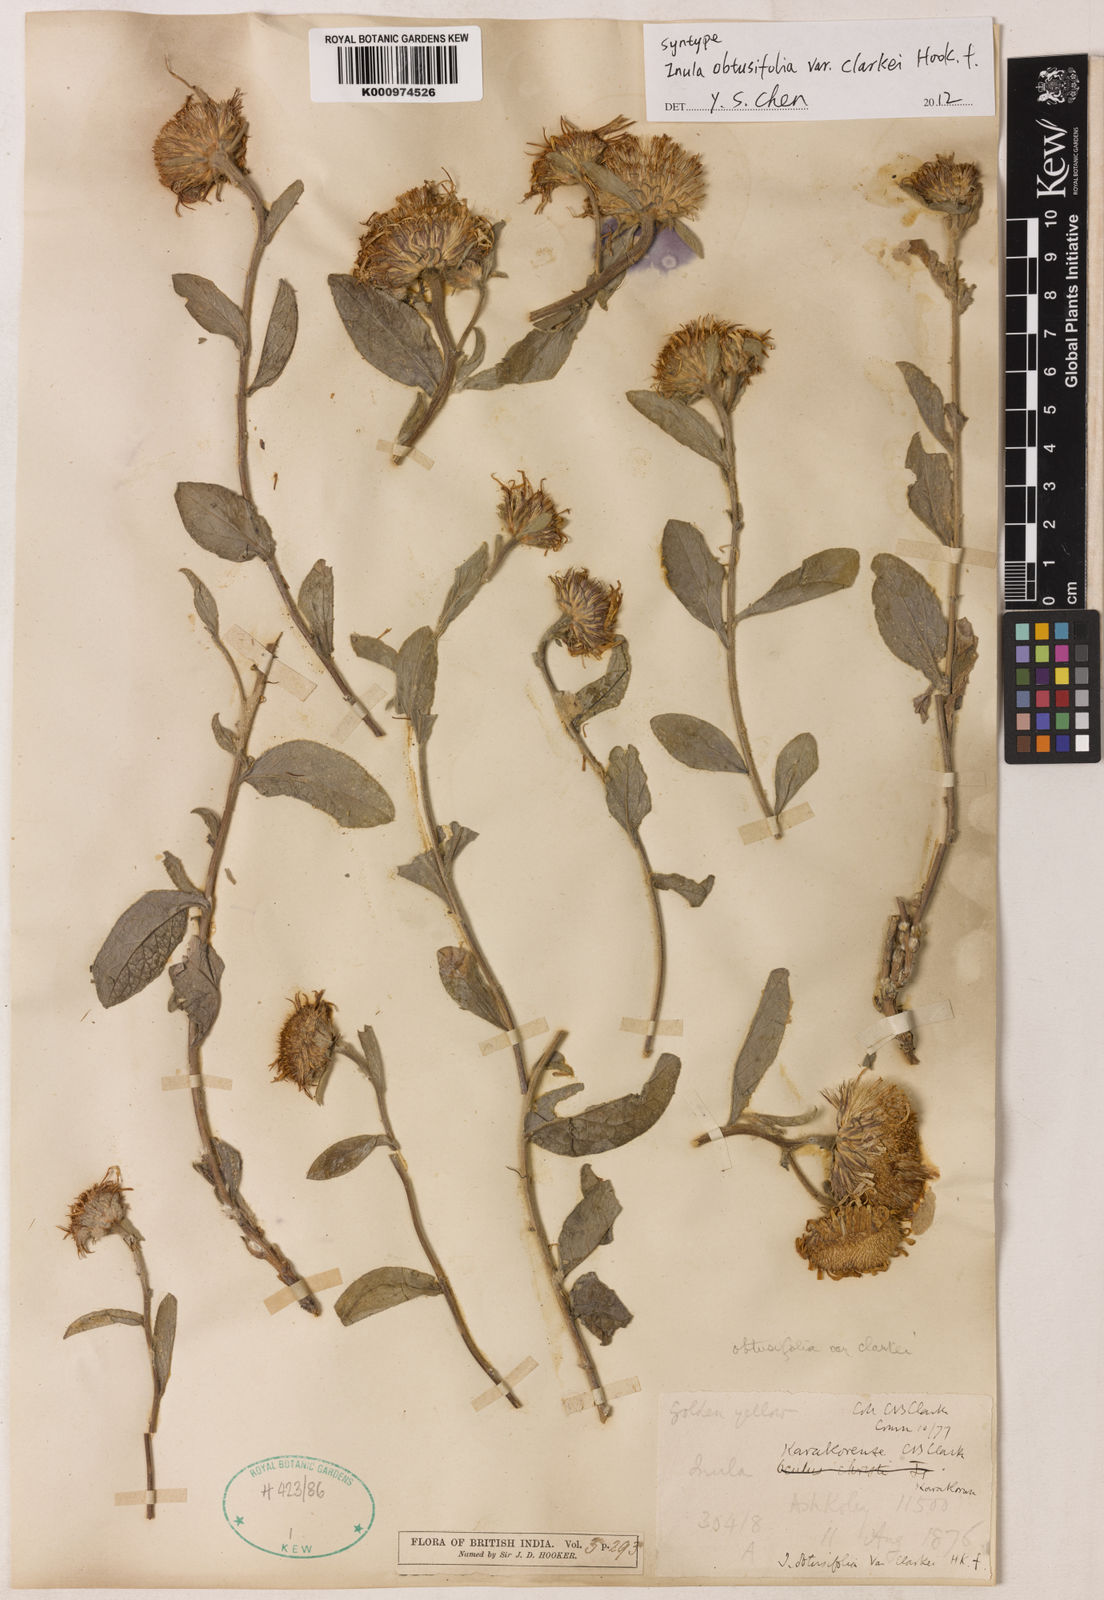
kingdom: Plantae
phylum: Tracheophyta
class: Magnoliopsida
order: Asterales
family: Asteraceae
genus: Inula
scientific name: Inula obtusifolia
